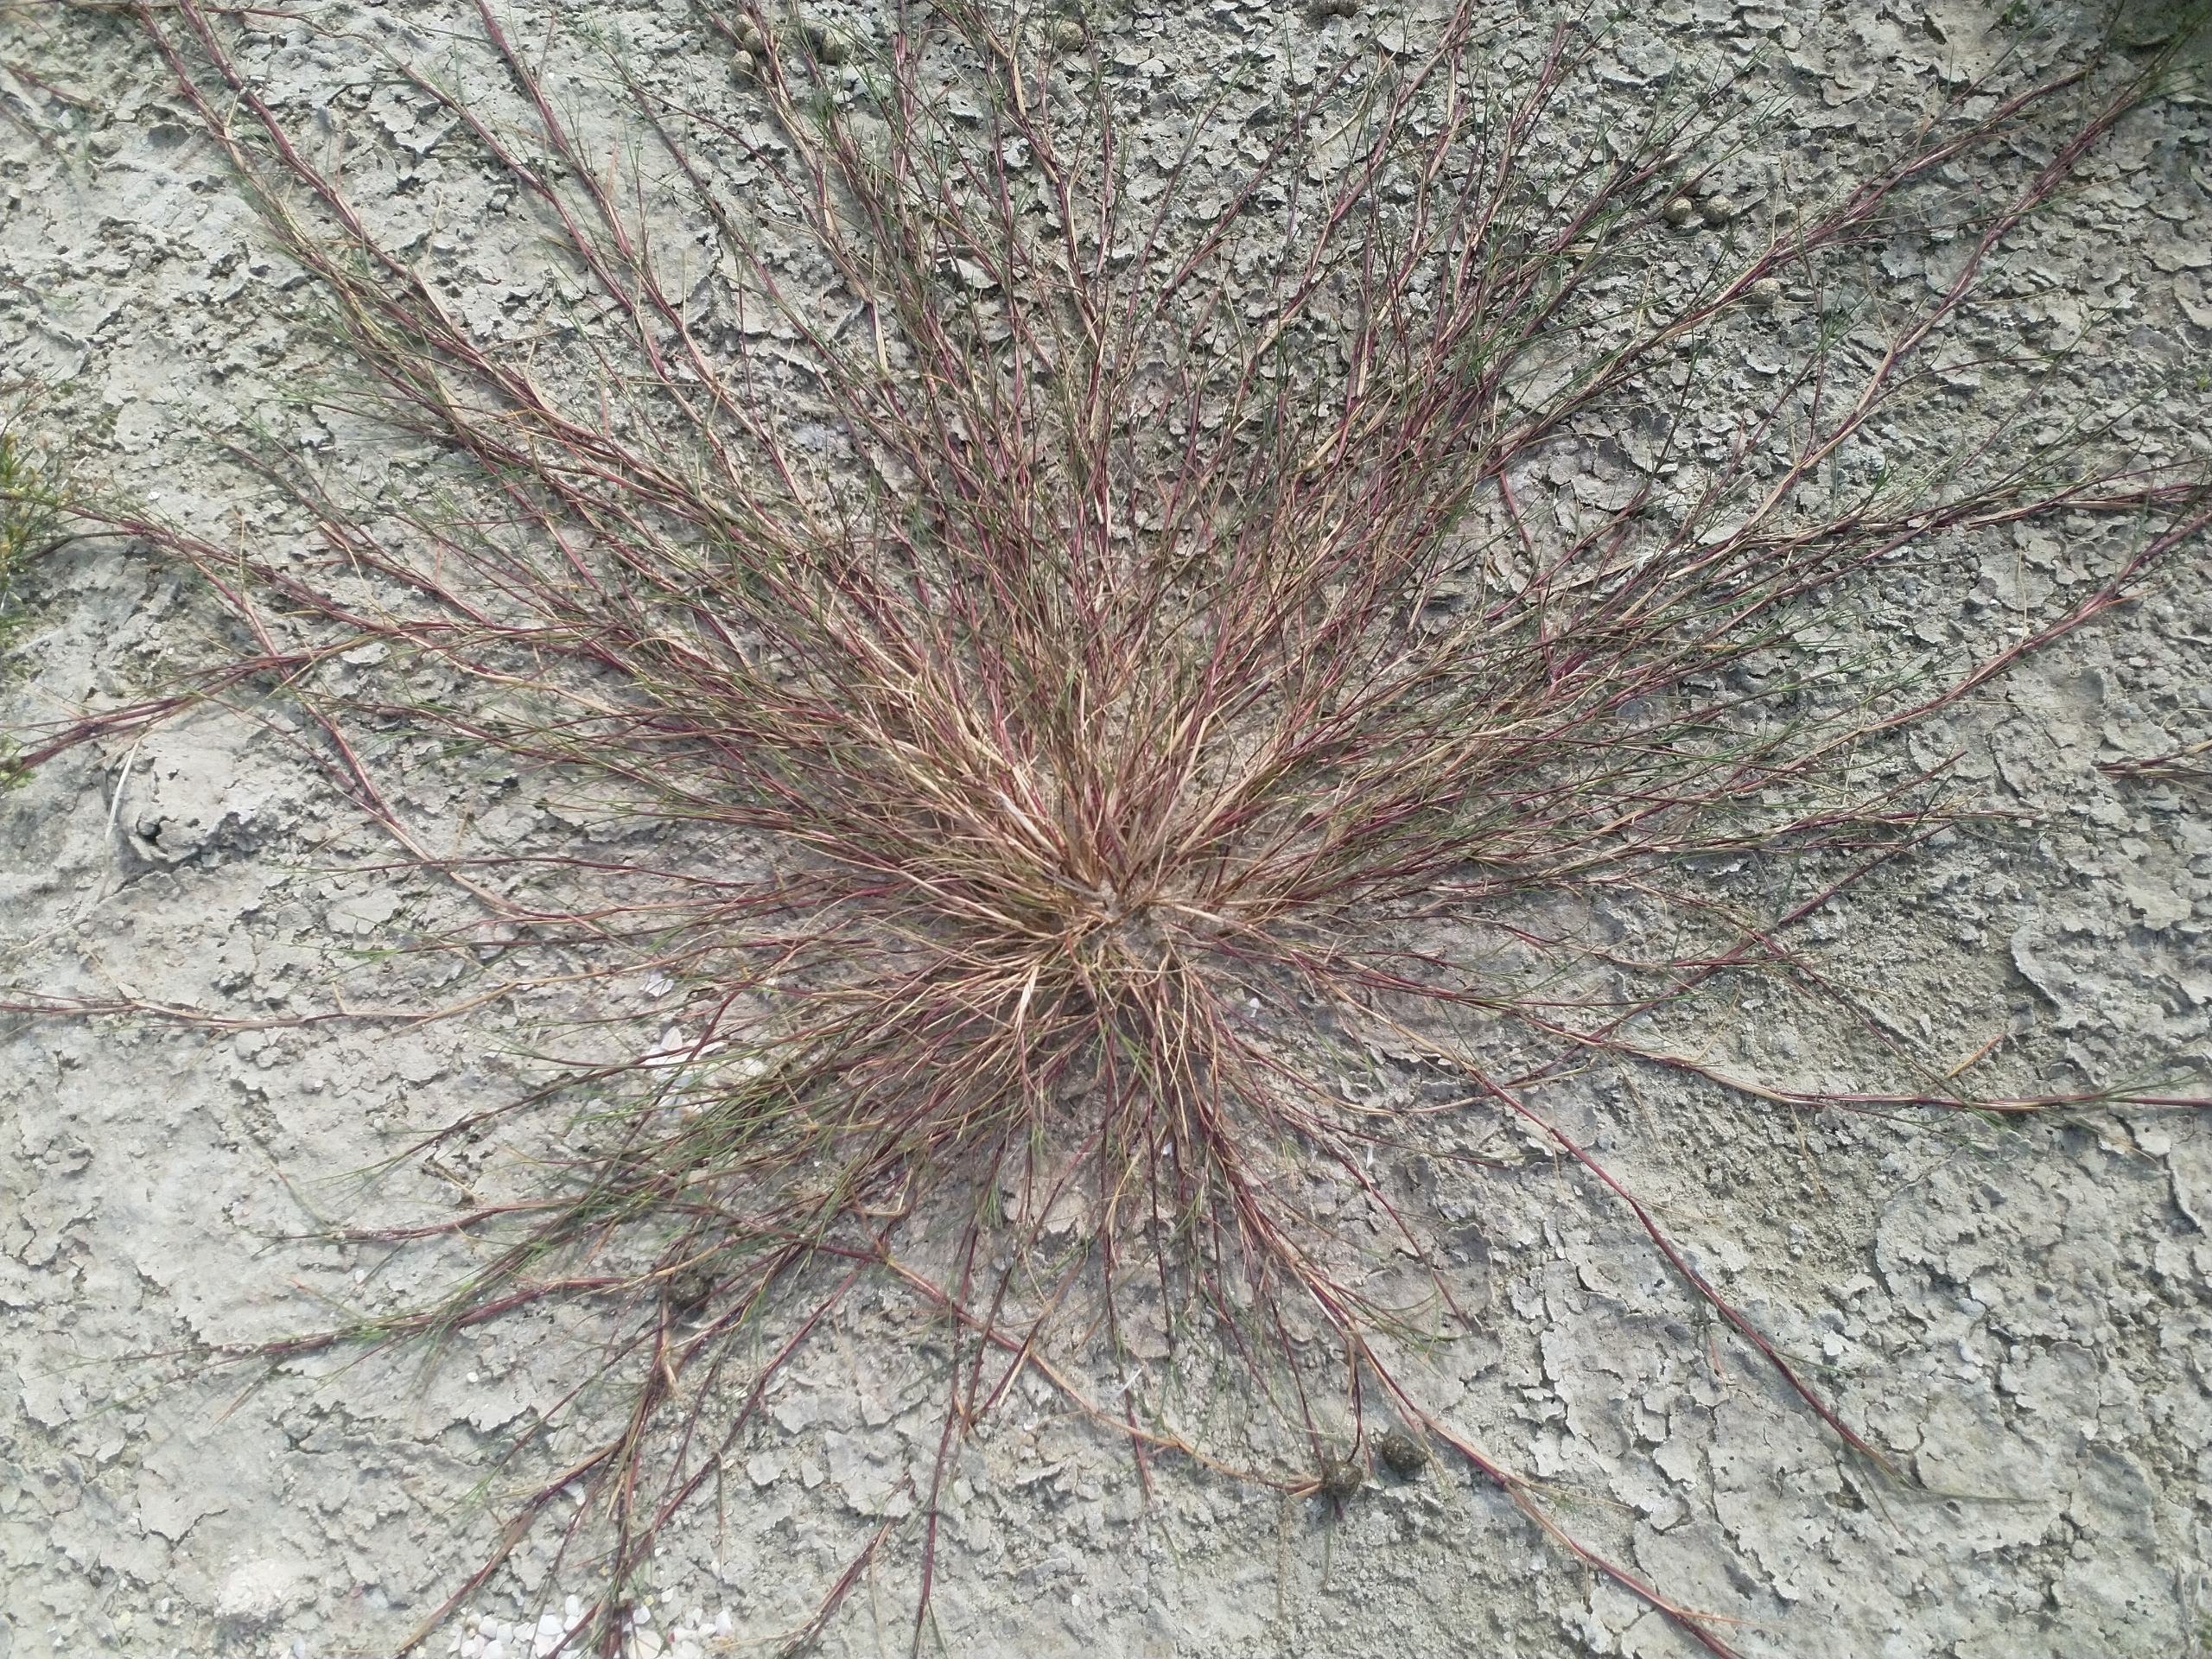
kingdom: Plantae
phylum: Tracheophyta
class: Liliopsida
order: Poales
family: Poaceae
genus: Puccinellia
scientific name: Puccinellia maritima
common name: Strand-annelgræs
